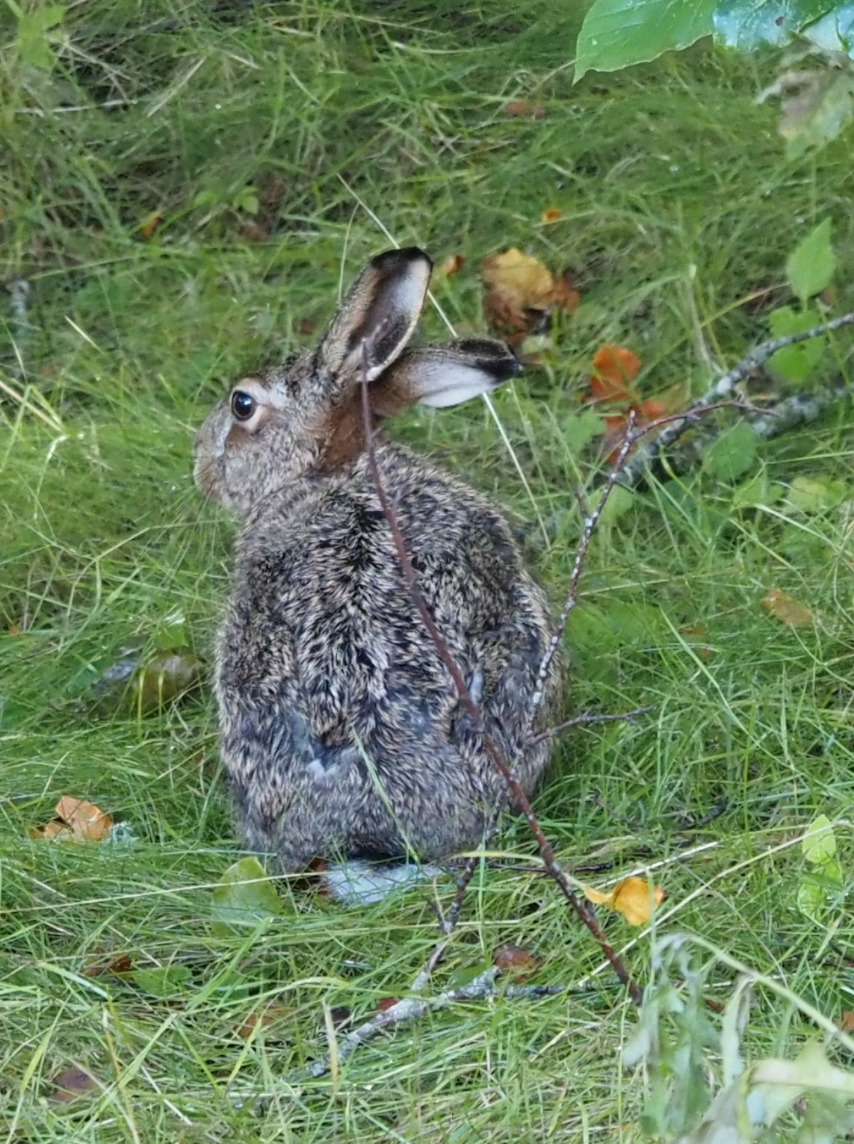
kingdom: Animalia
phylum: Chordata
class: Mammalia
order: Lagomorpha
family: Leporidae
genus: Lepus
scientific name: Lepus europaeus
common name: Hare
